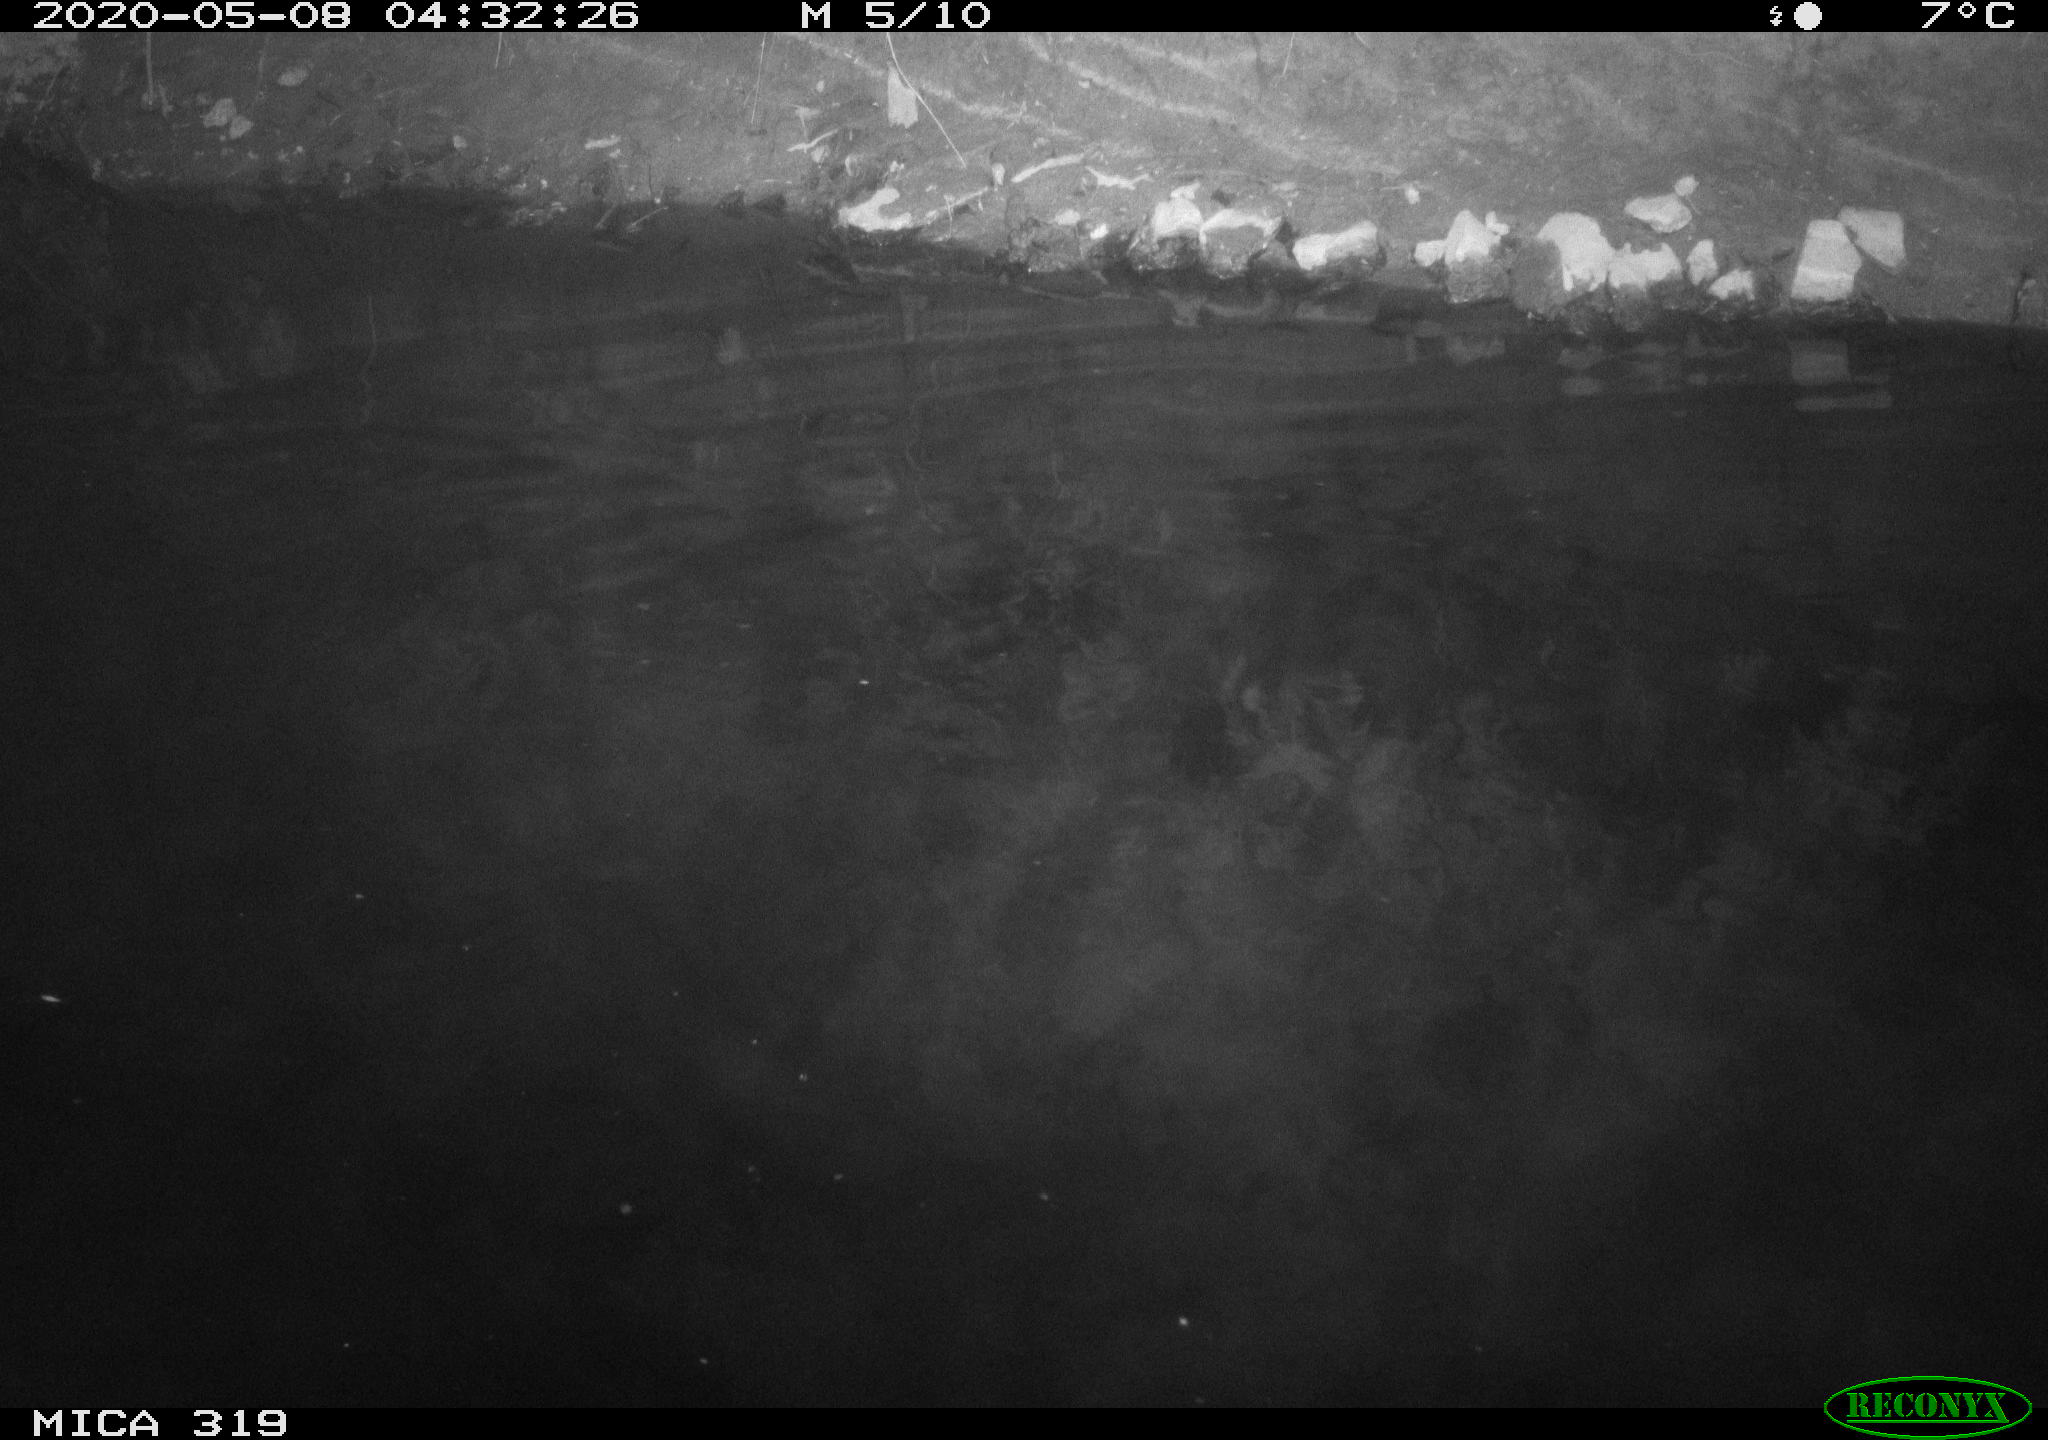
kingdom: Animalia
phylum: Chordata
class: Aves
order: Anseriformes
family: Anatidae
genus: Anas
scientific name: Anas platyrhynchos
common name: Mallard
